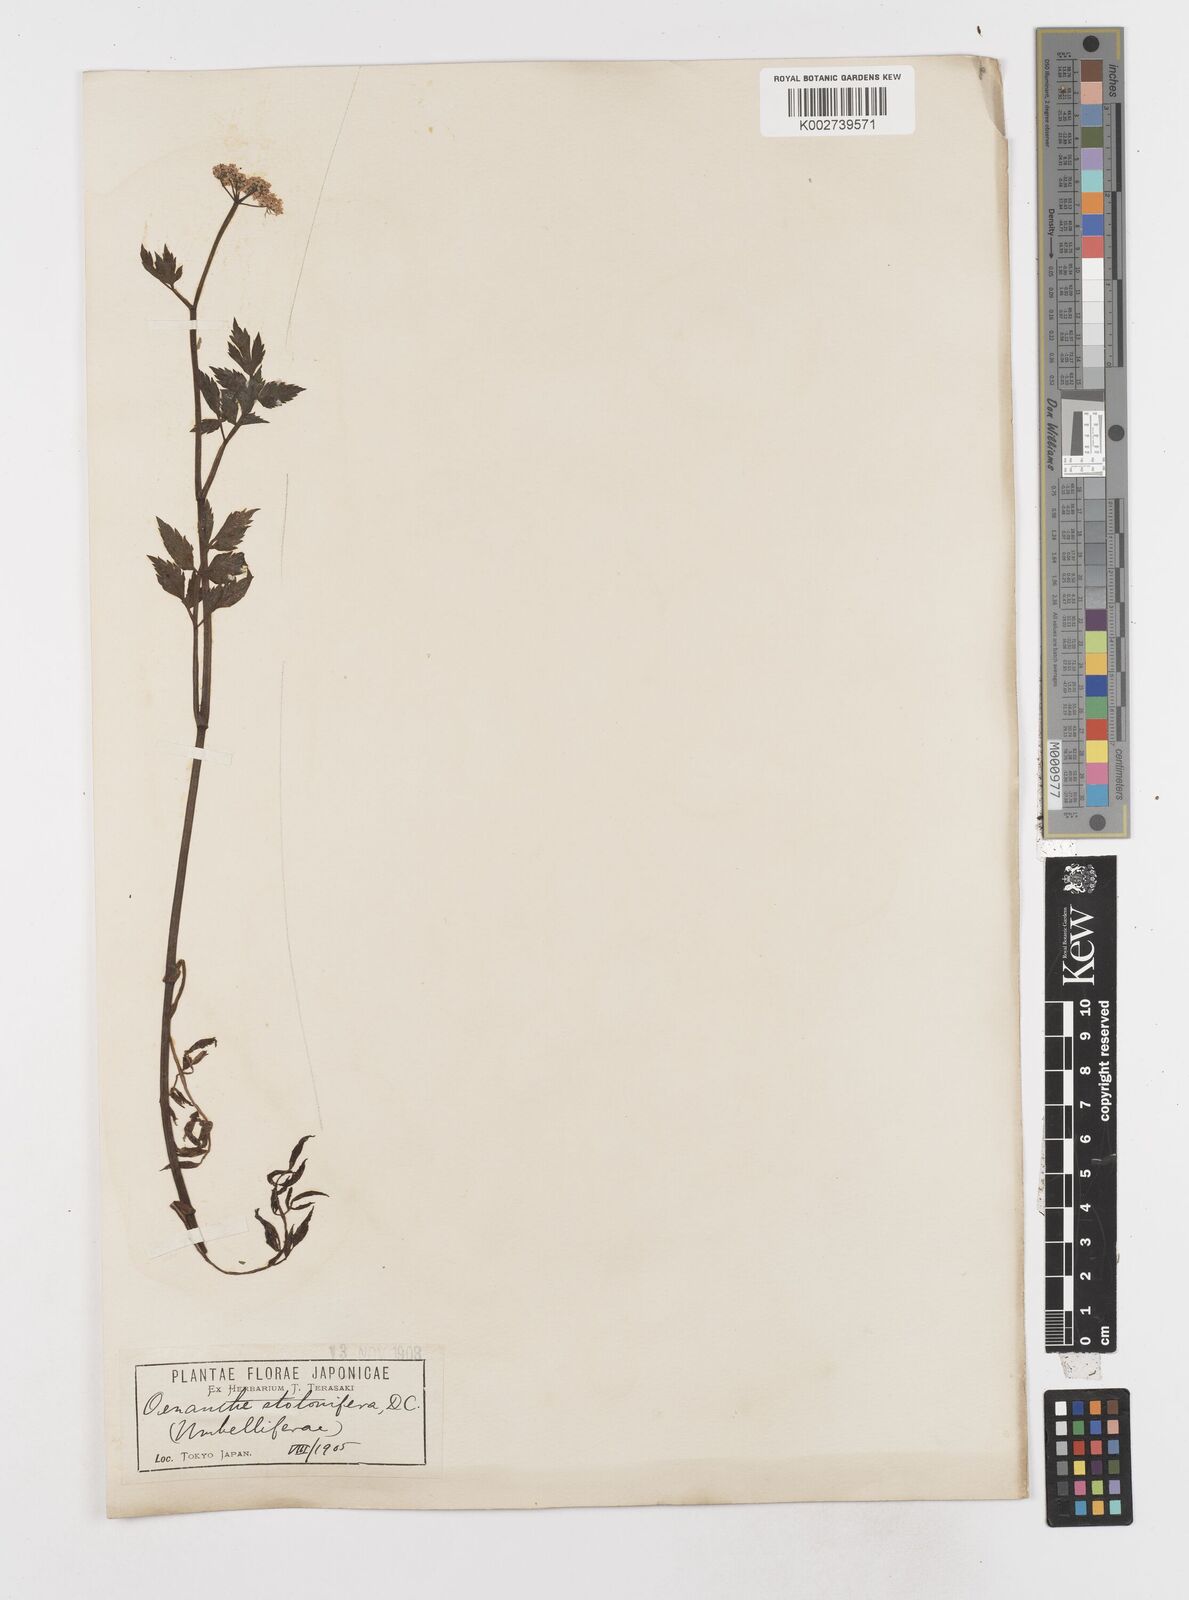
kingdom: Plantae
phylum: Tracheophyta
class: Magnoliopsida
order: Apiales
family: Apiaceae
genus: Oenanthe
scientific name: Oenanthe javanica
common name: Java water-dropwort
